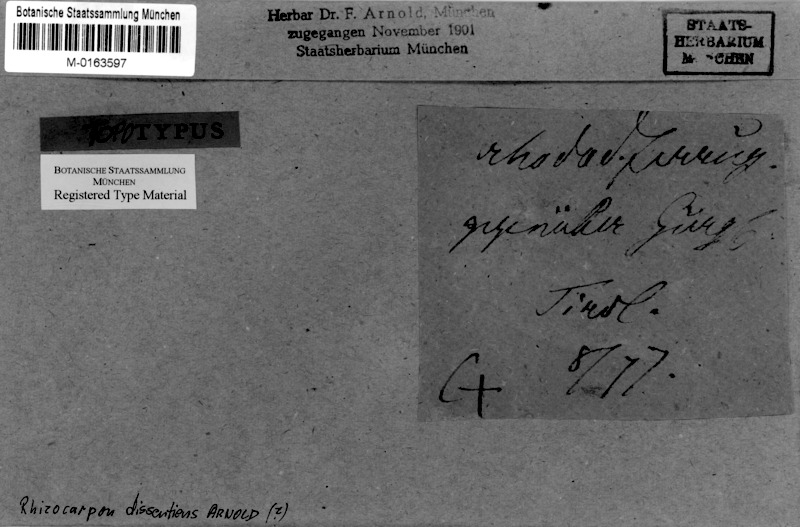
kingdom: Fungi
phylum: Ascomycota
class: Lecanoromycetes
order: Rhizocarpales
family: Rhizocarpaceae
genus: Rhizocarpon
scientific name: Rhizocarpon eupetraeum
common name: Boneset map lichen
